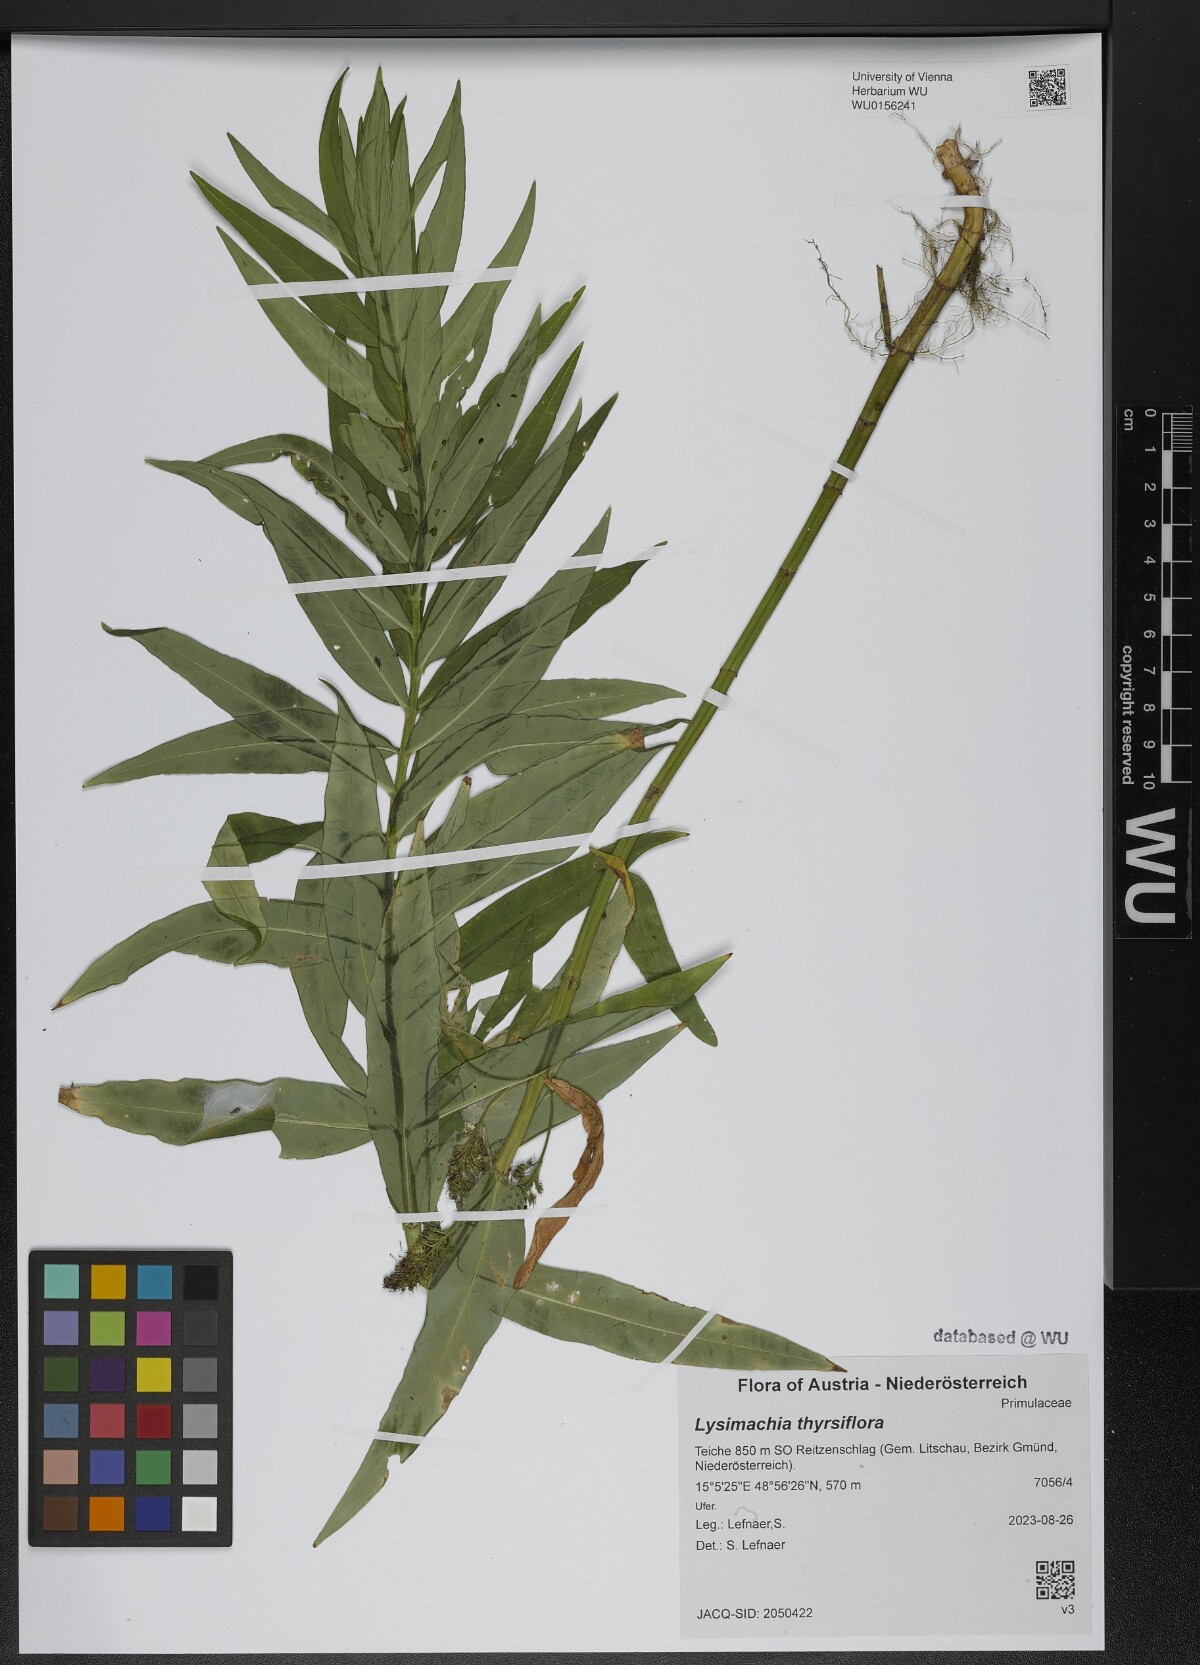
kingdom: Plantae
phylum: Tracheophyta
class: Magnoliopsida
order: Ericales
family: Primulaceae
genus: Lysimachia
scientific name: Lysimachia thyrsiflora
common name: Tufted loosestrife
